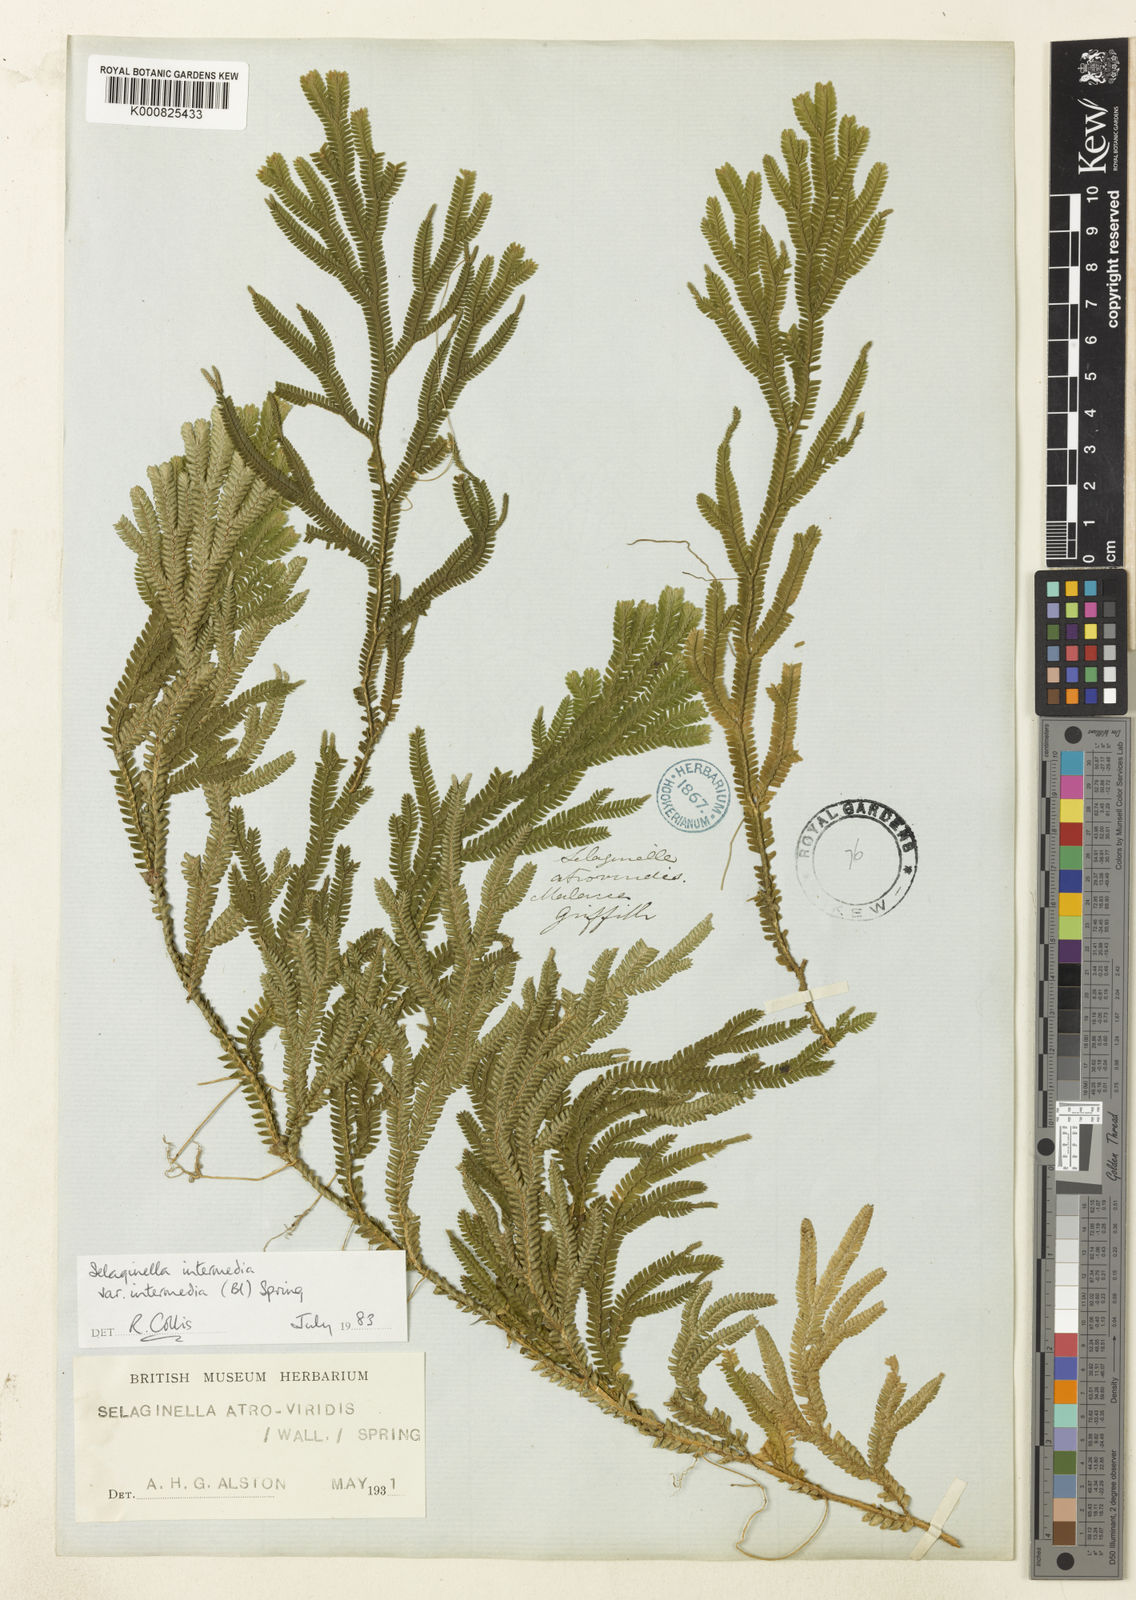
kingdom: Plantae
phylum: Tracheophyta
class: Lycopodiopsida
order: Selaginellales
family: Selaginellaceae
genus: Selaginella
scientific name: Selaginella intermedia
